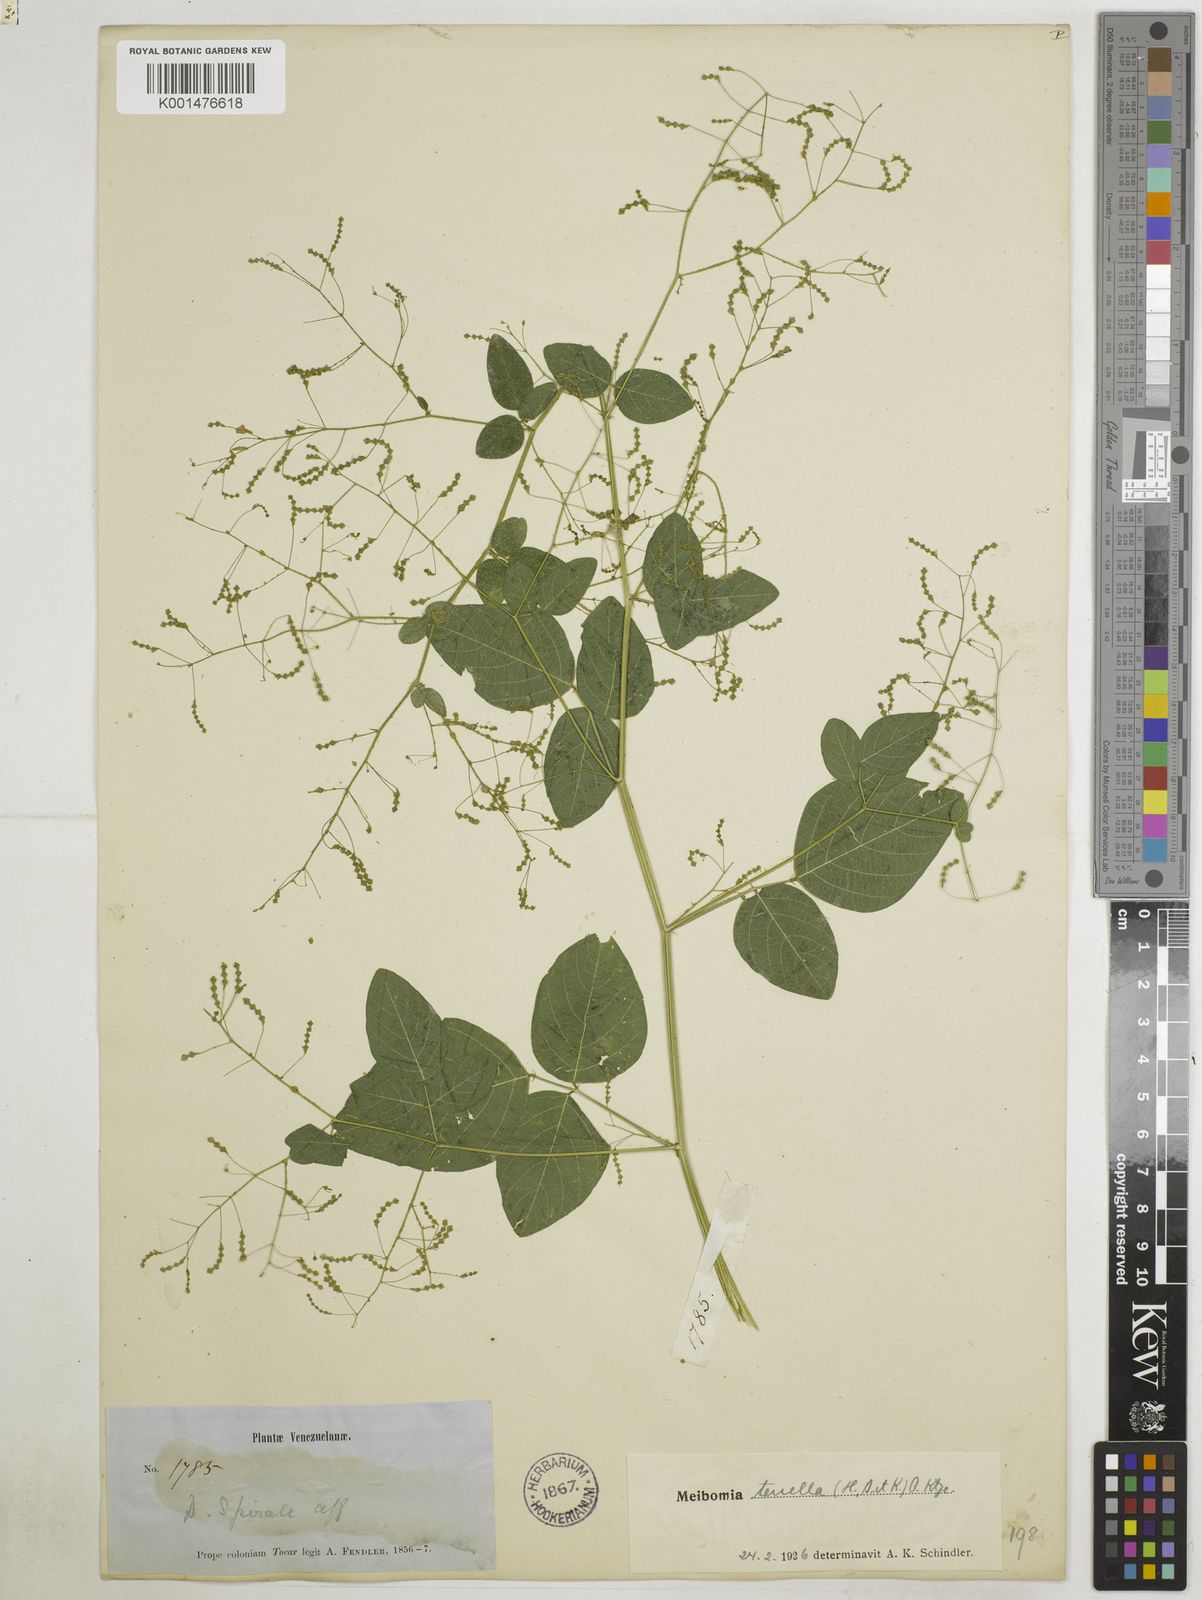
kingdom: Plantae
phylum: Tracheophyta
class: Magnoliopsida
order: Fabales
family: Fabaceae
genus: Desmodium
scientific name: Desmodium procumbens
